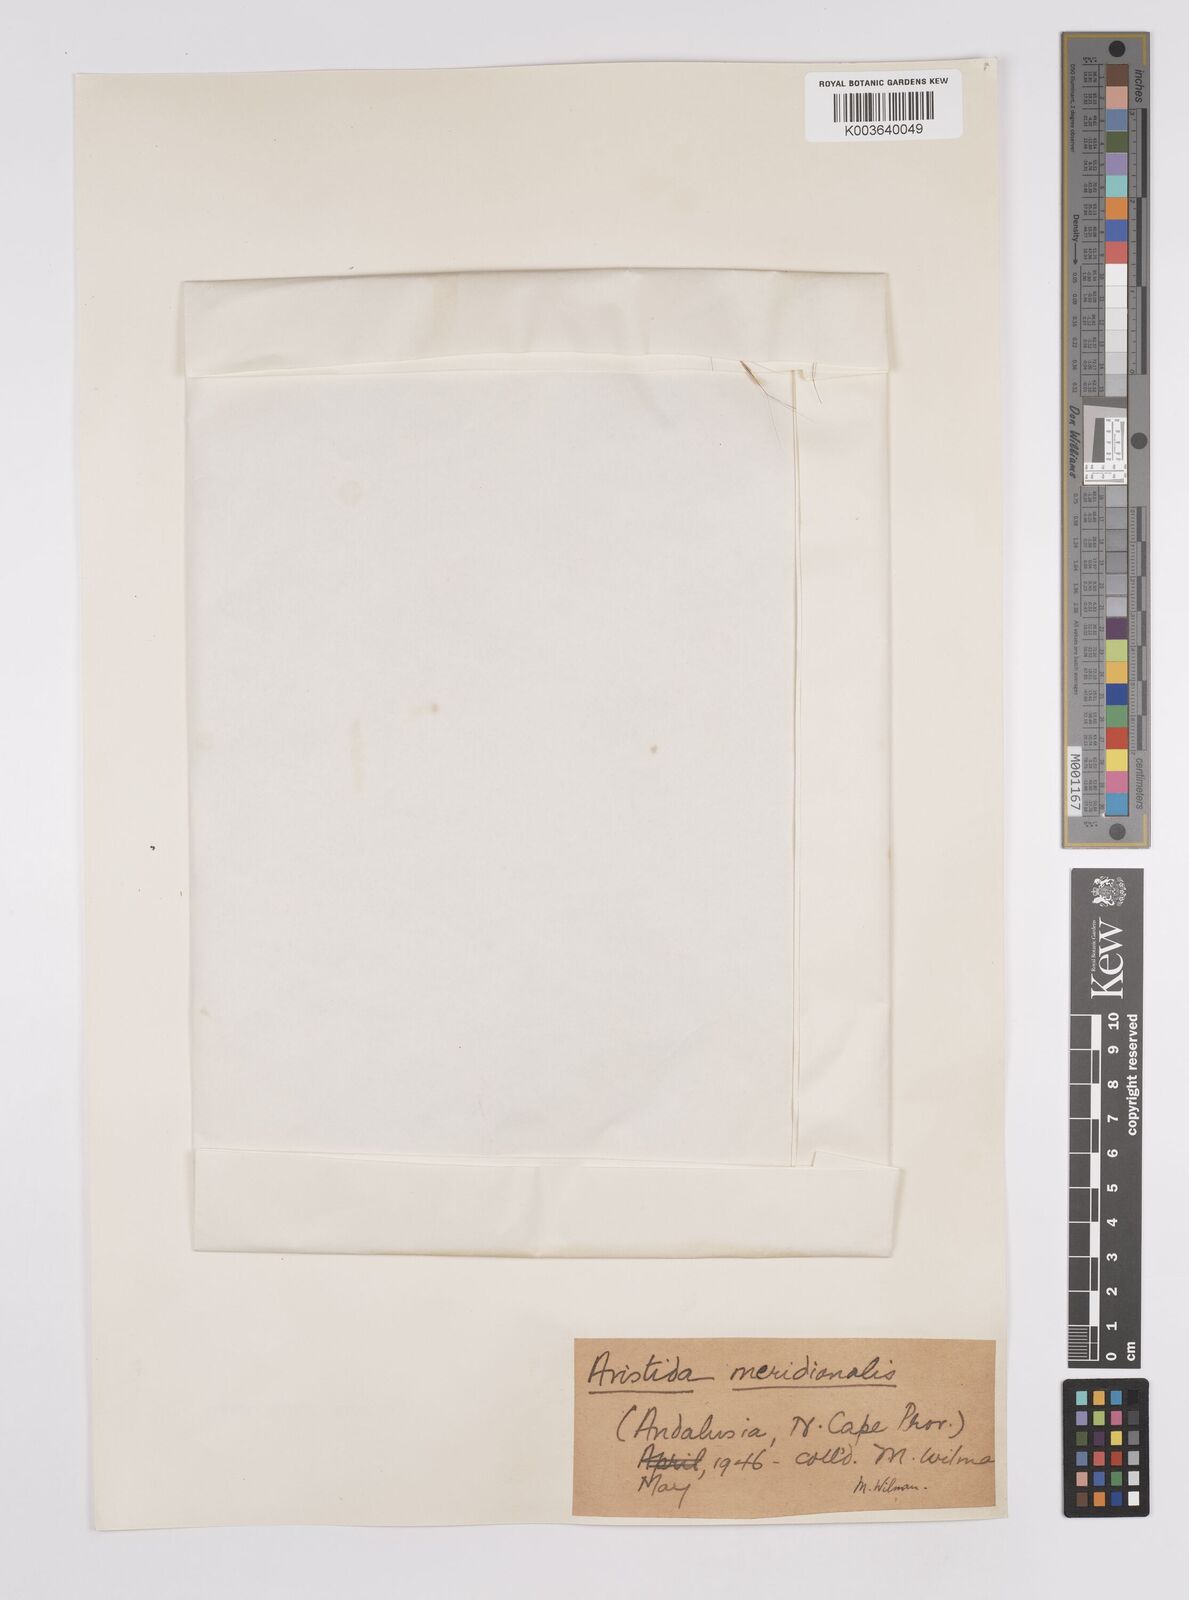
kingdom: Plantae
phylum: Tracheophyta
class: Liliopsida
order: Poales
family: Poaceae
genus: Aristida
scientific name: Aristida meridionalis
